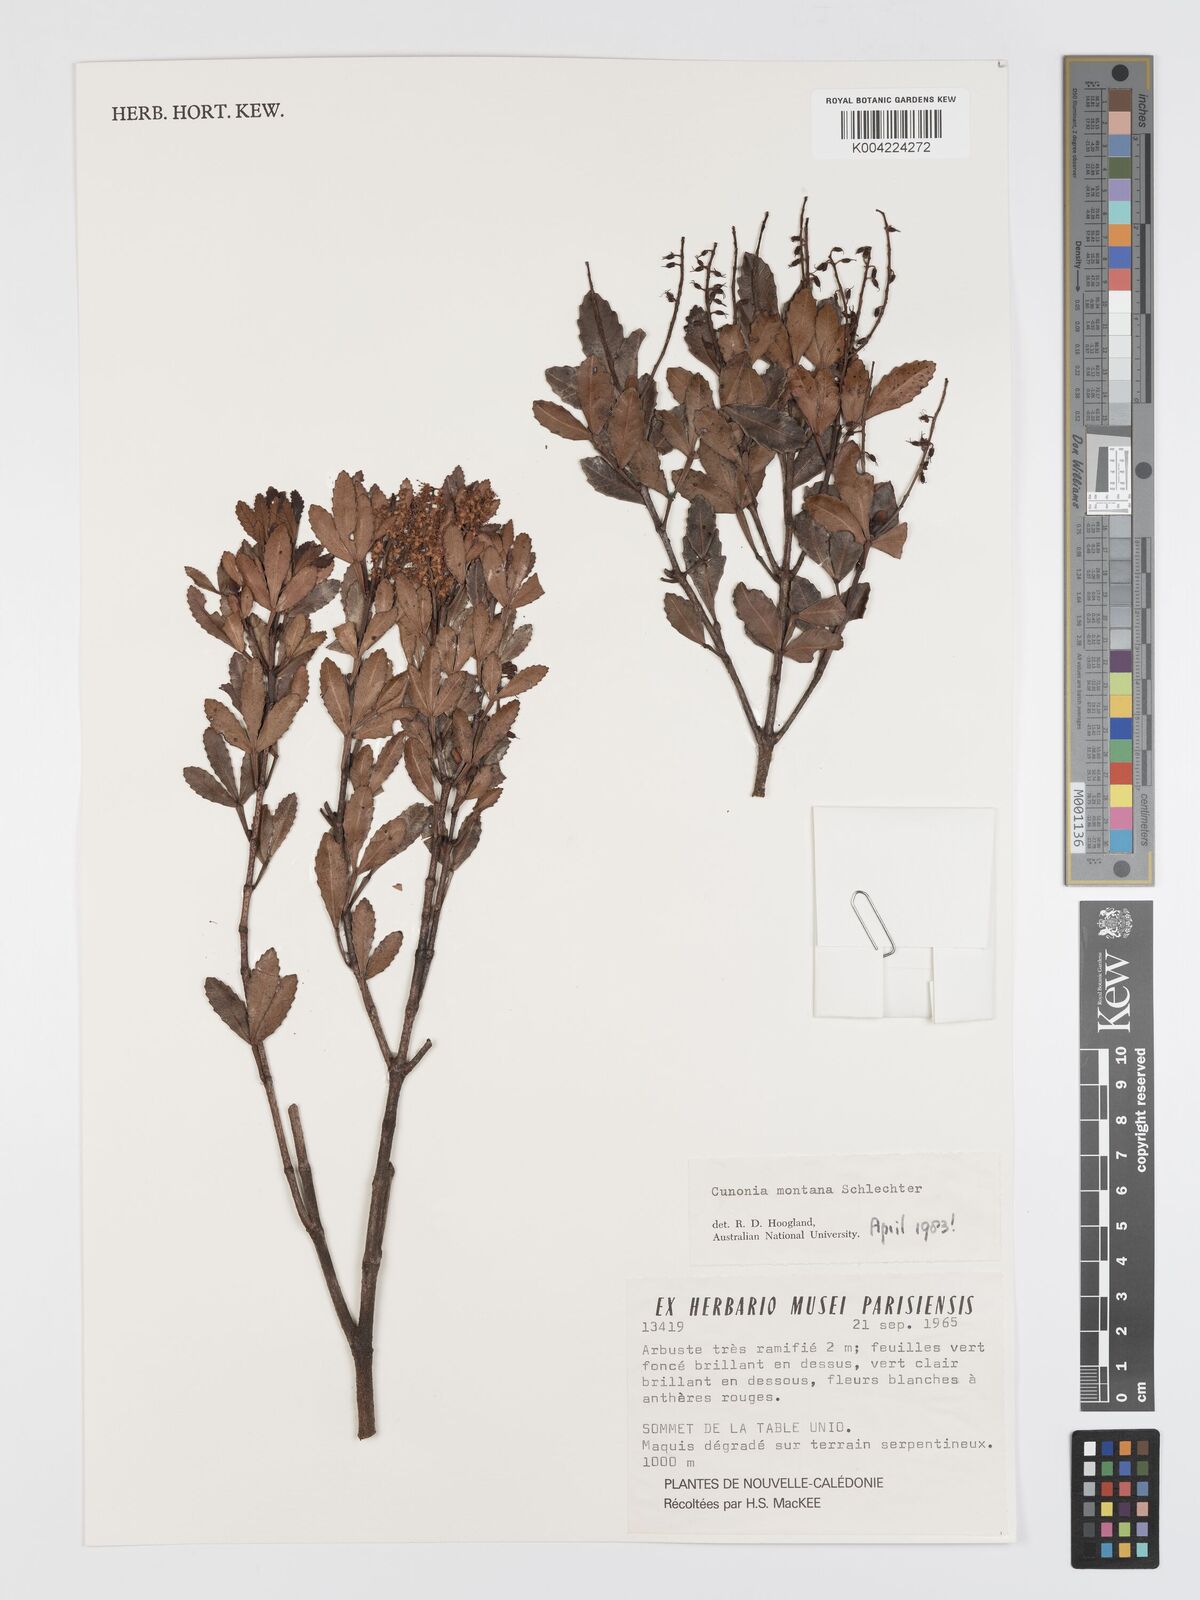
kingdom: Plantae
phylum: Tracheophyta
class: Magnoliopsida
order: Oxalidales
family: Cunoniaceae
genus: Cunonia
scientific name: Cunonia montana
